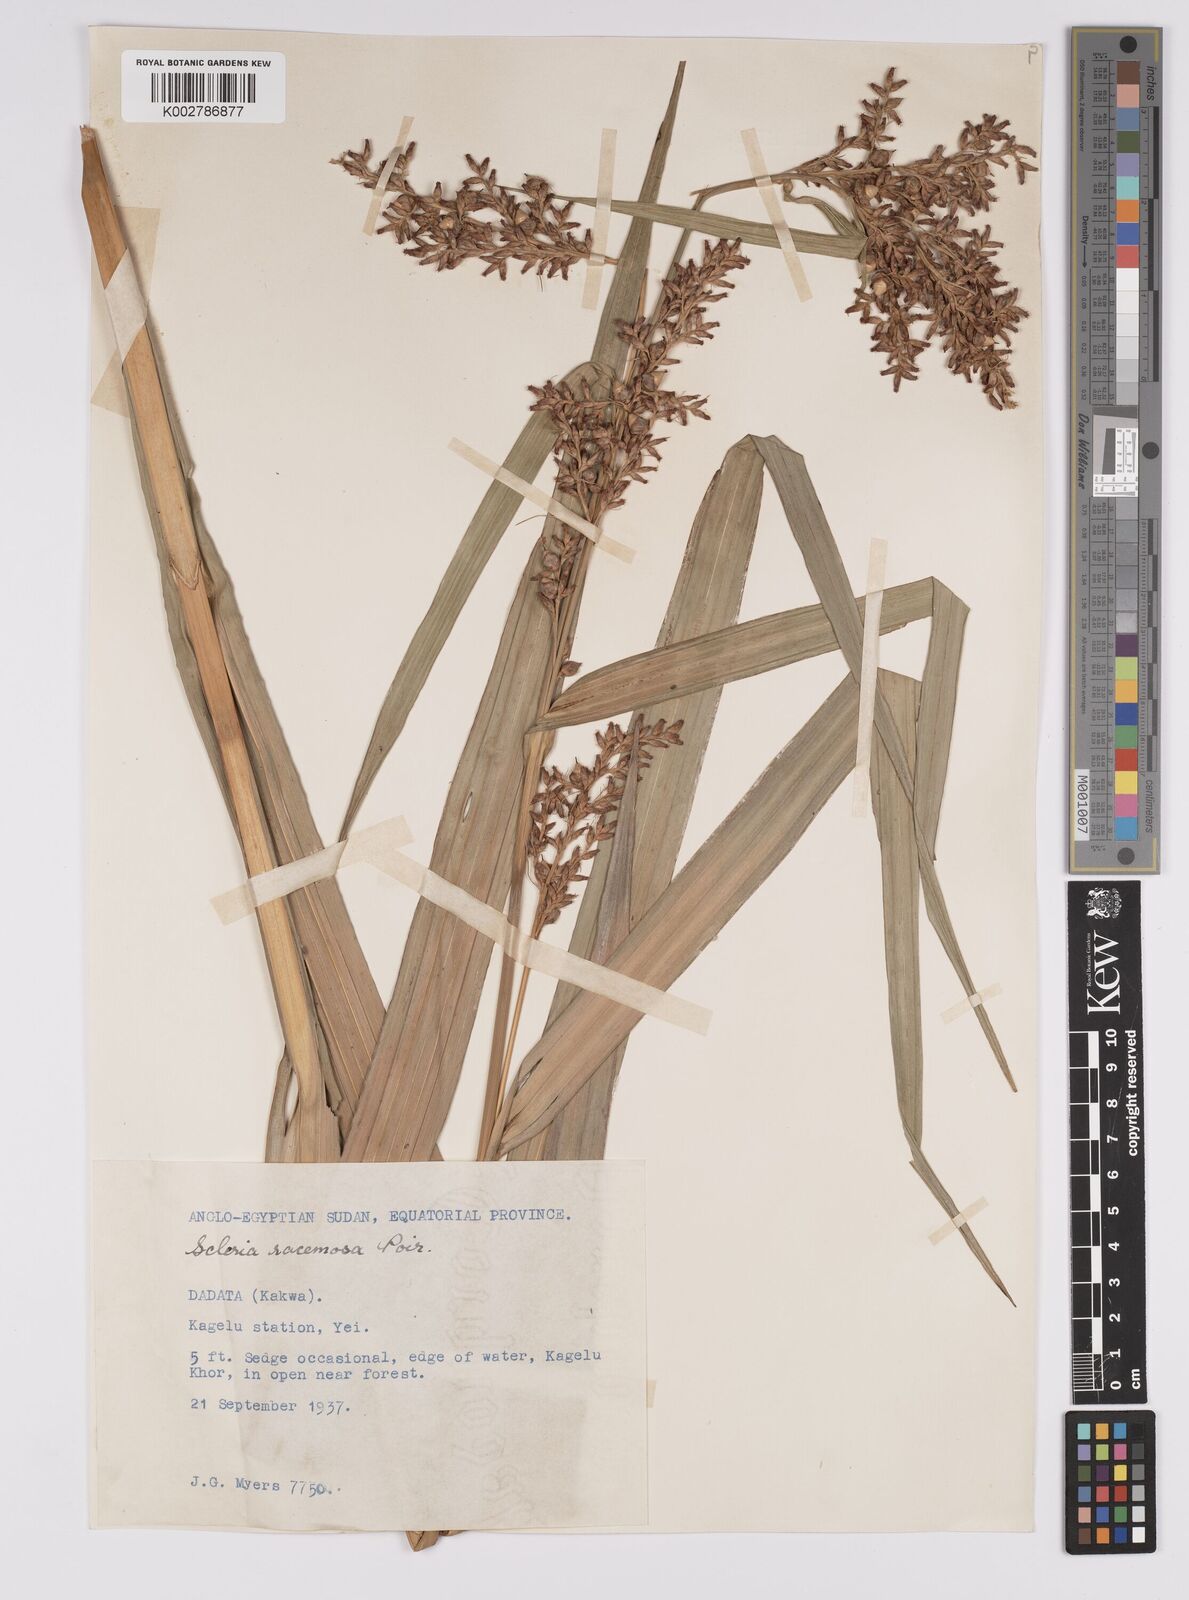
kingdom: Plantae
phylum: Tracheophyta
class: Liliopsida
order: Poales
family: Cyperaceae
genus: Scleria
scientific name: Scleria racemosa
